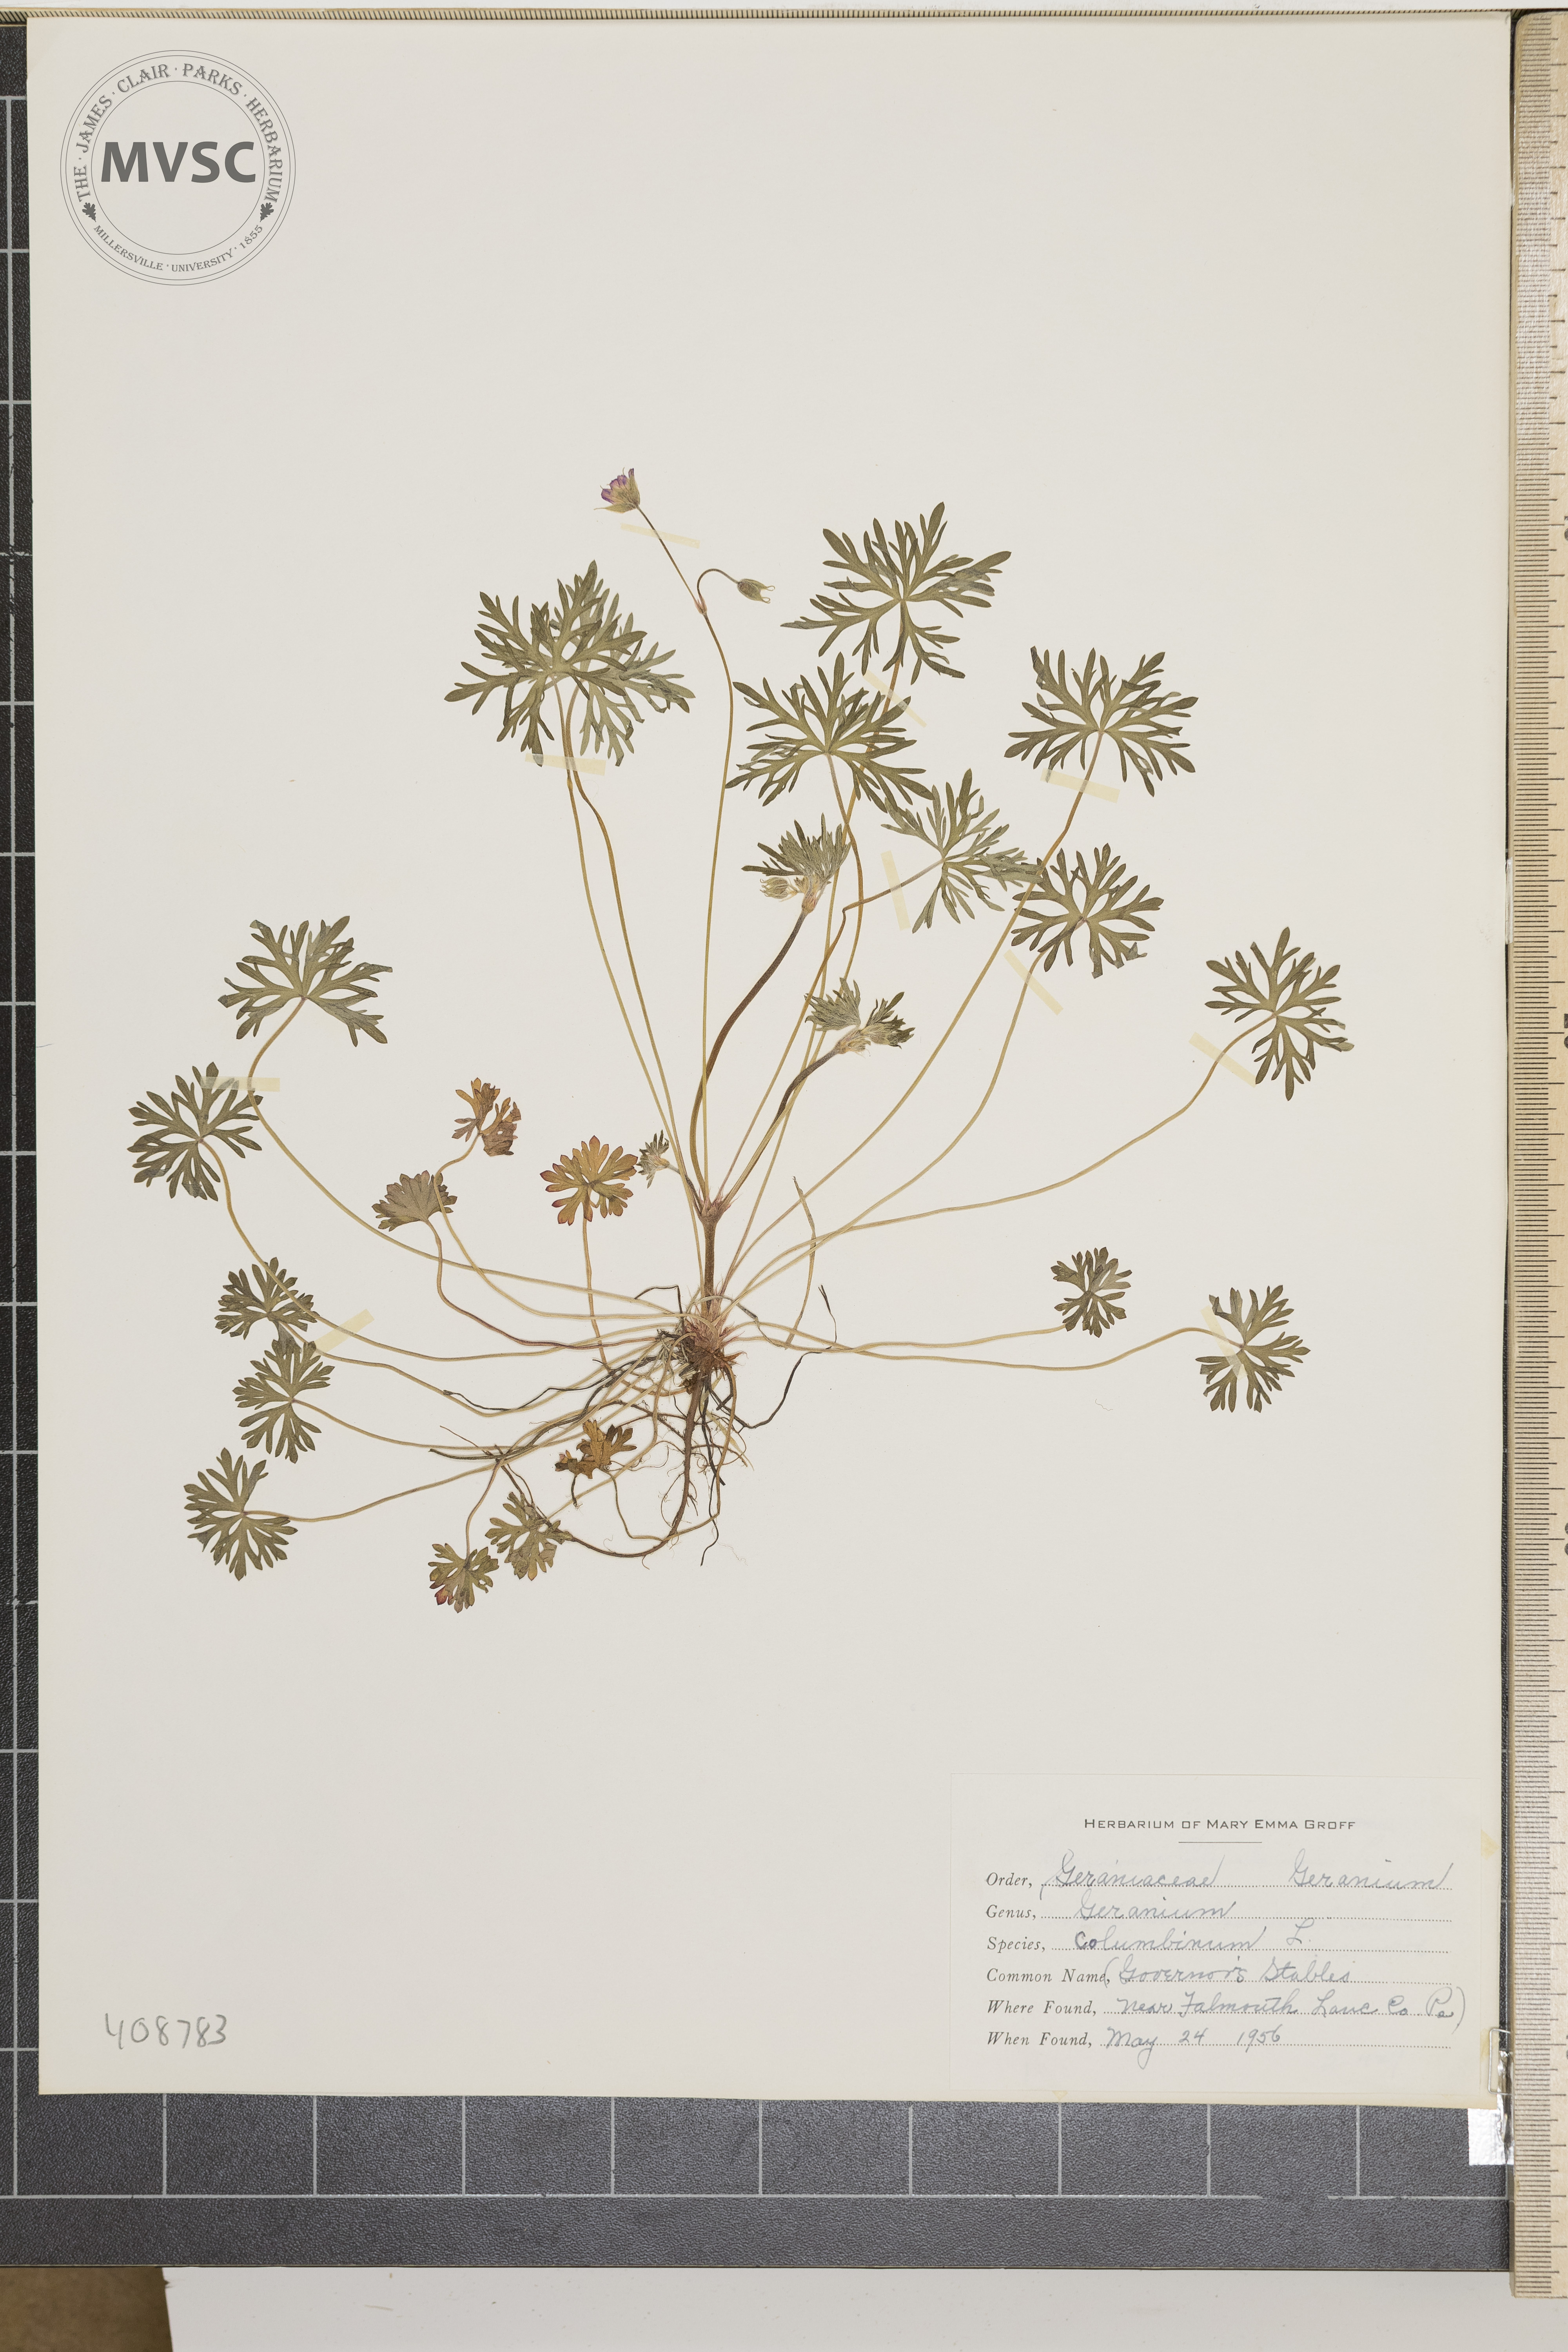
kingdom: Plantae
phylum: Tracheophyta
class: Magnoliopsida
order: Geraniales
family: Geraniaceae
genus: Geranium
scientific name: Geranium columbinum
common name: Long-stalked crane's-bill
